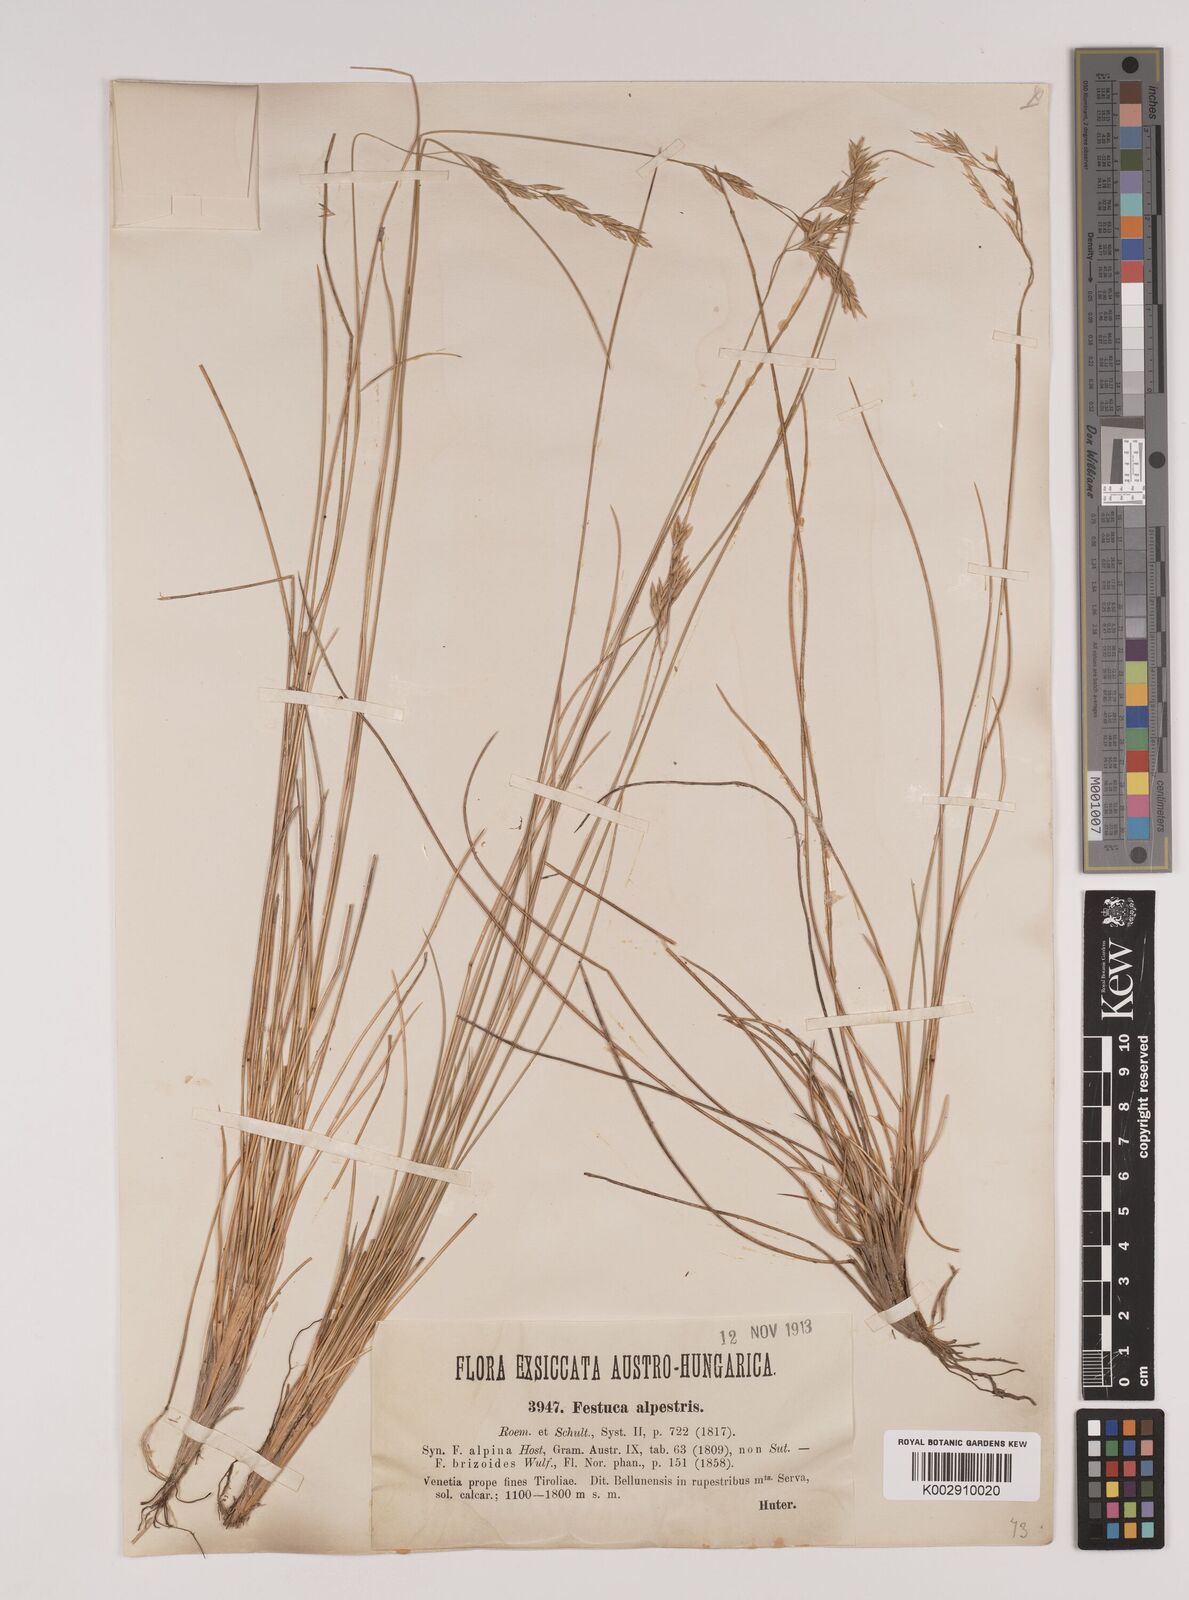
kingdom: Plantae
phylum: Tracheophyta
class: Liliopsida
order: Poales
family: Poaceae
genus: Festuca
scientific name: Festuca alpestris
